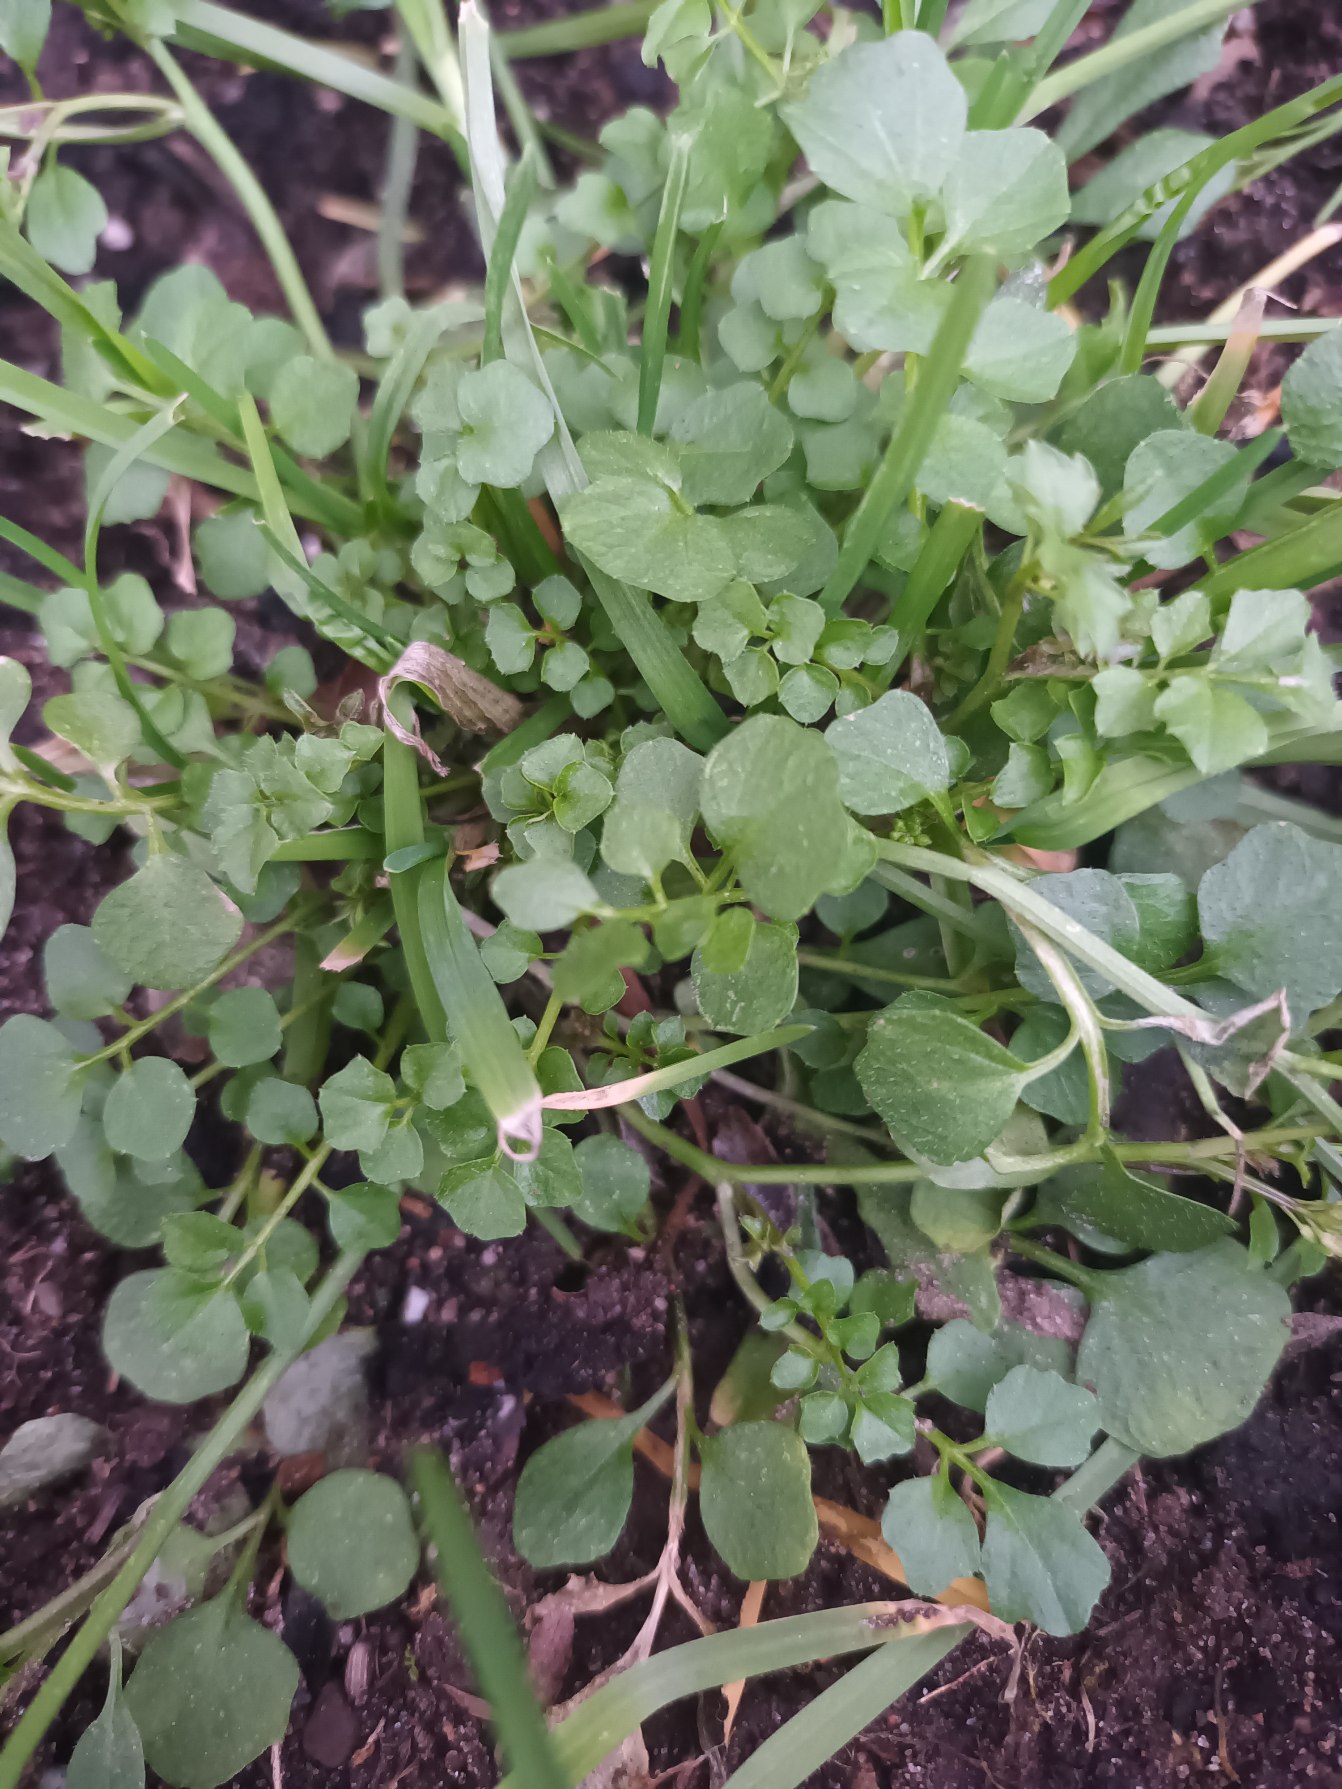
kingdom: Plantae
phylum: Tracheophyta
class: Magnoliopsida
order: Brassicales
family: Brassicaceae
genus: Cardamine
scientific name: Cardamine occulta
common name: Glat skovkarse
